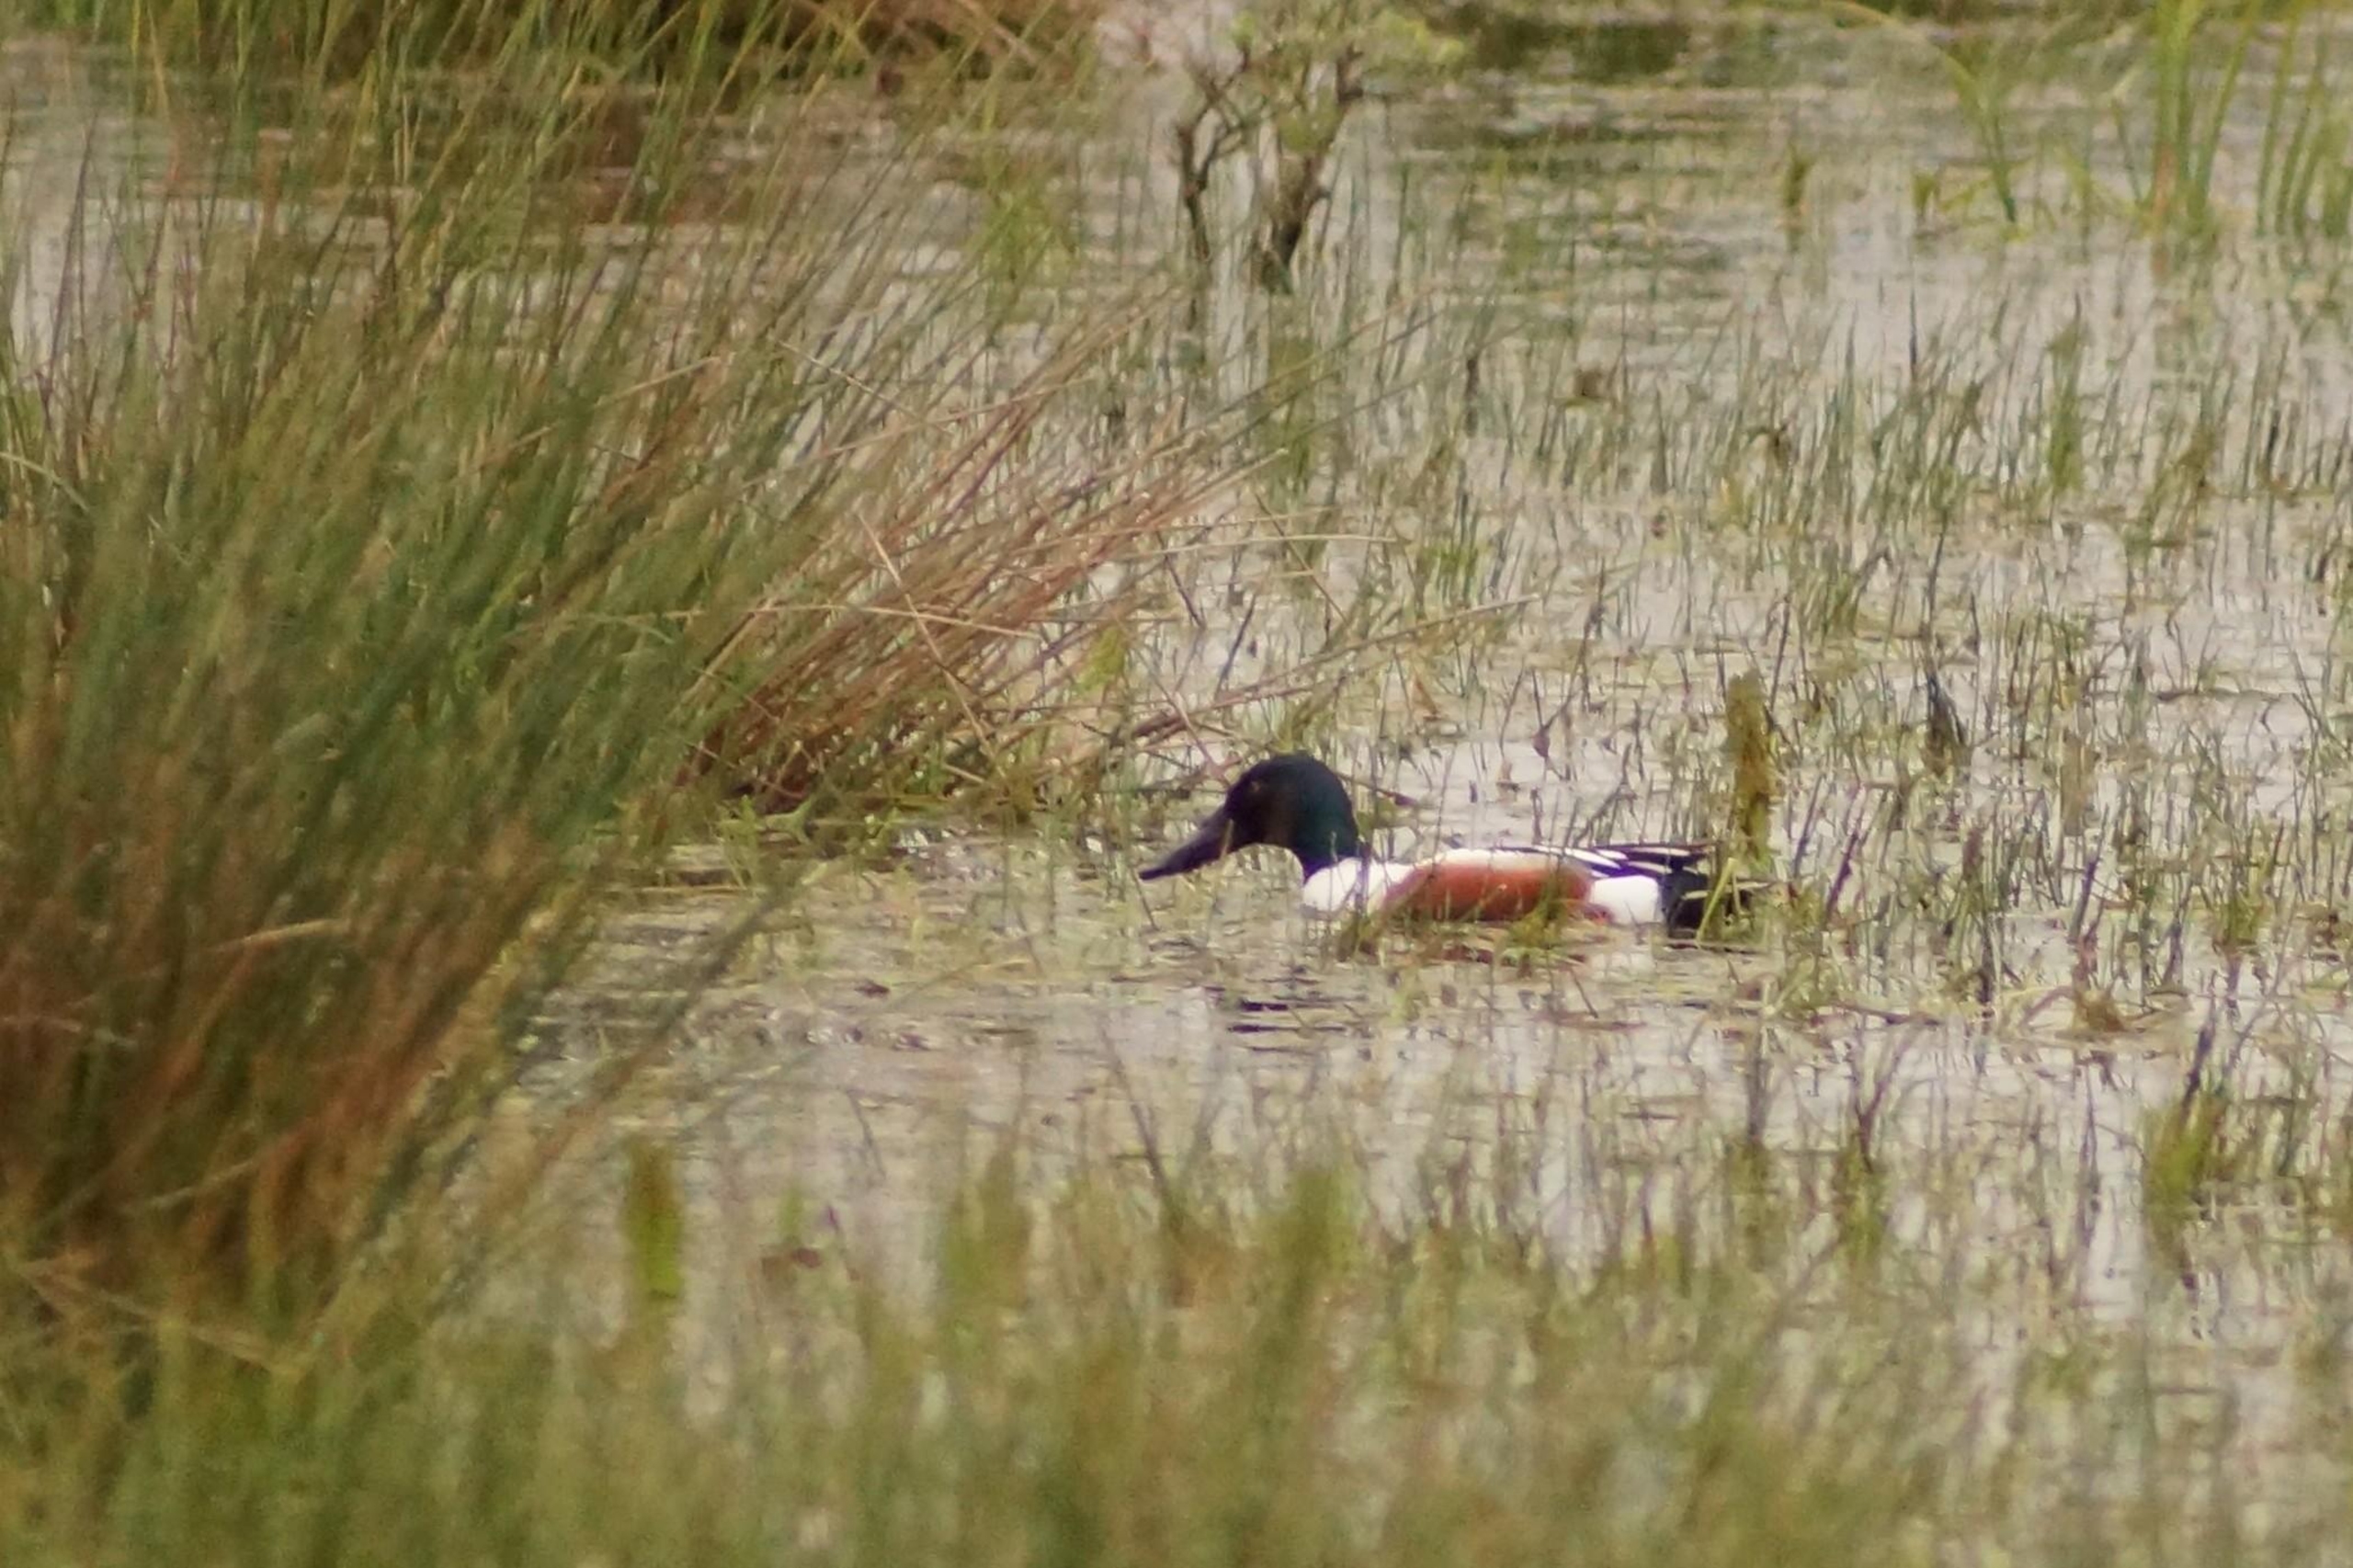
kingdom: Animalia
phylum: Chordata
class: Aves
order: Anseriformes
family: Anatidae
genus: Spatula
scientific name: Spatula clypeata
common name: Skeand
